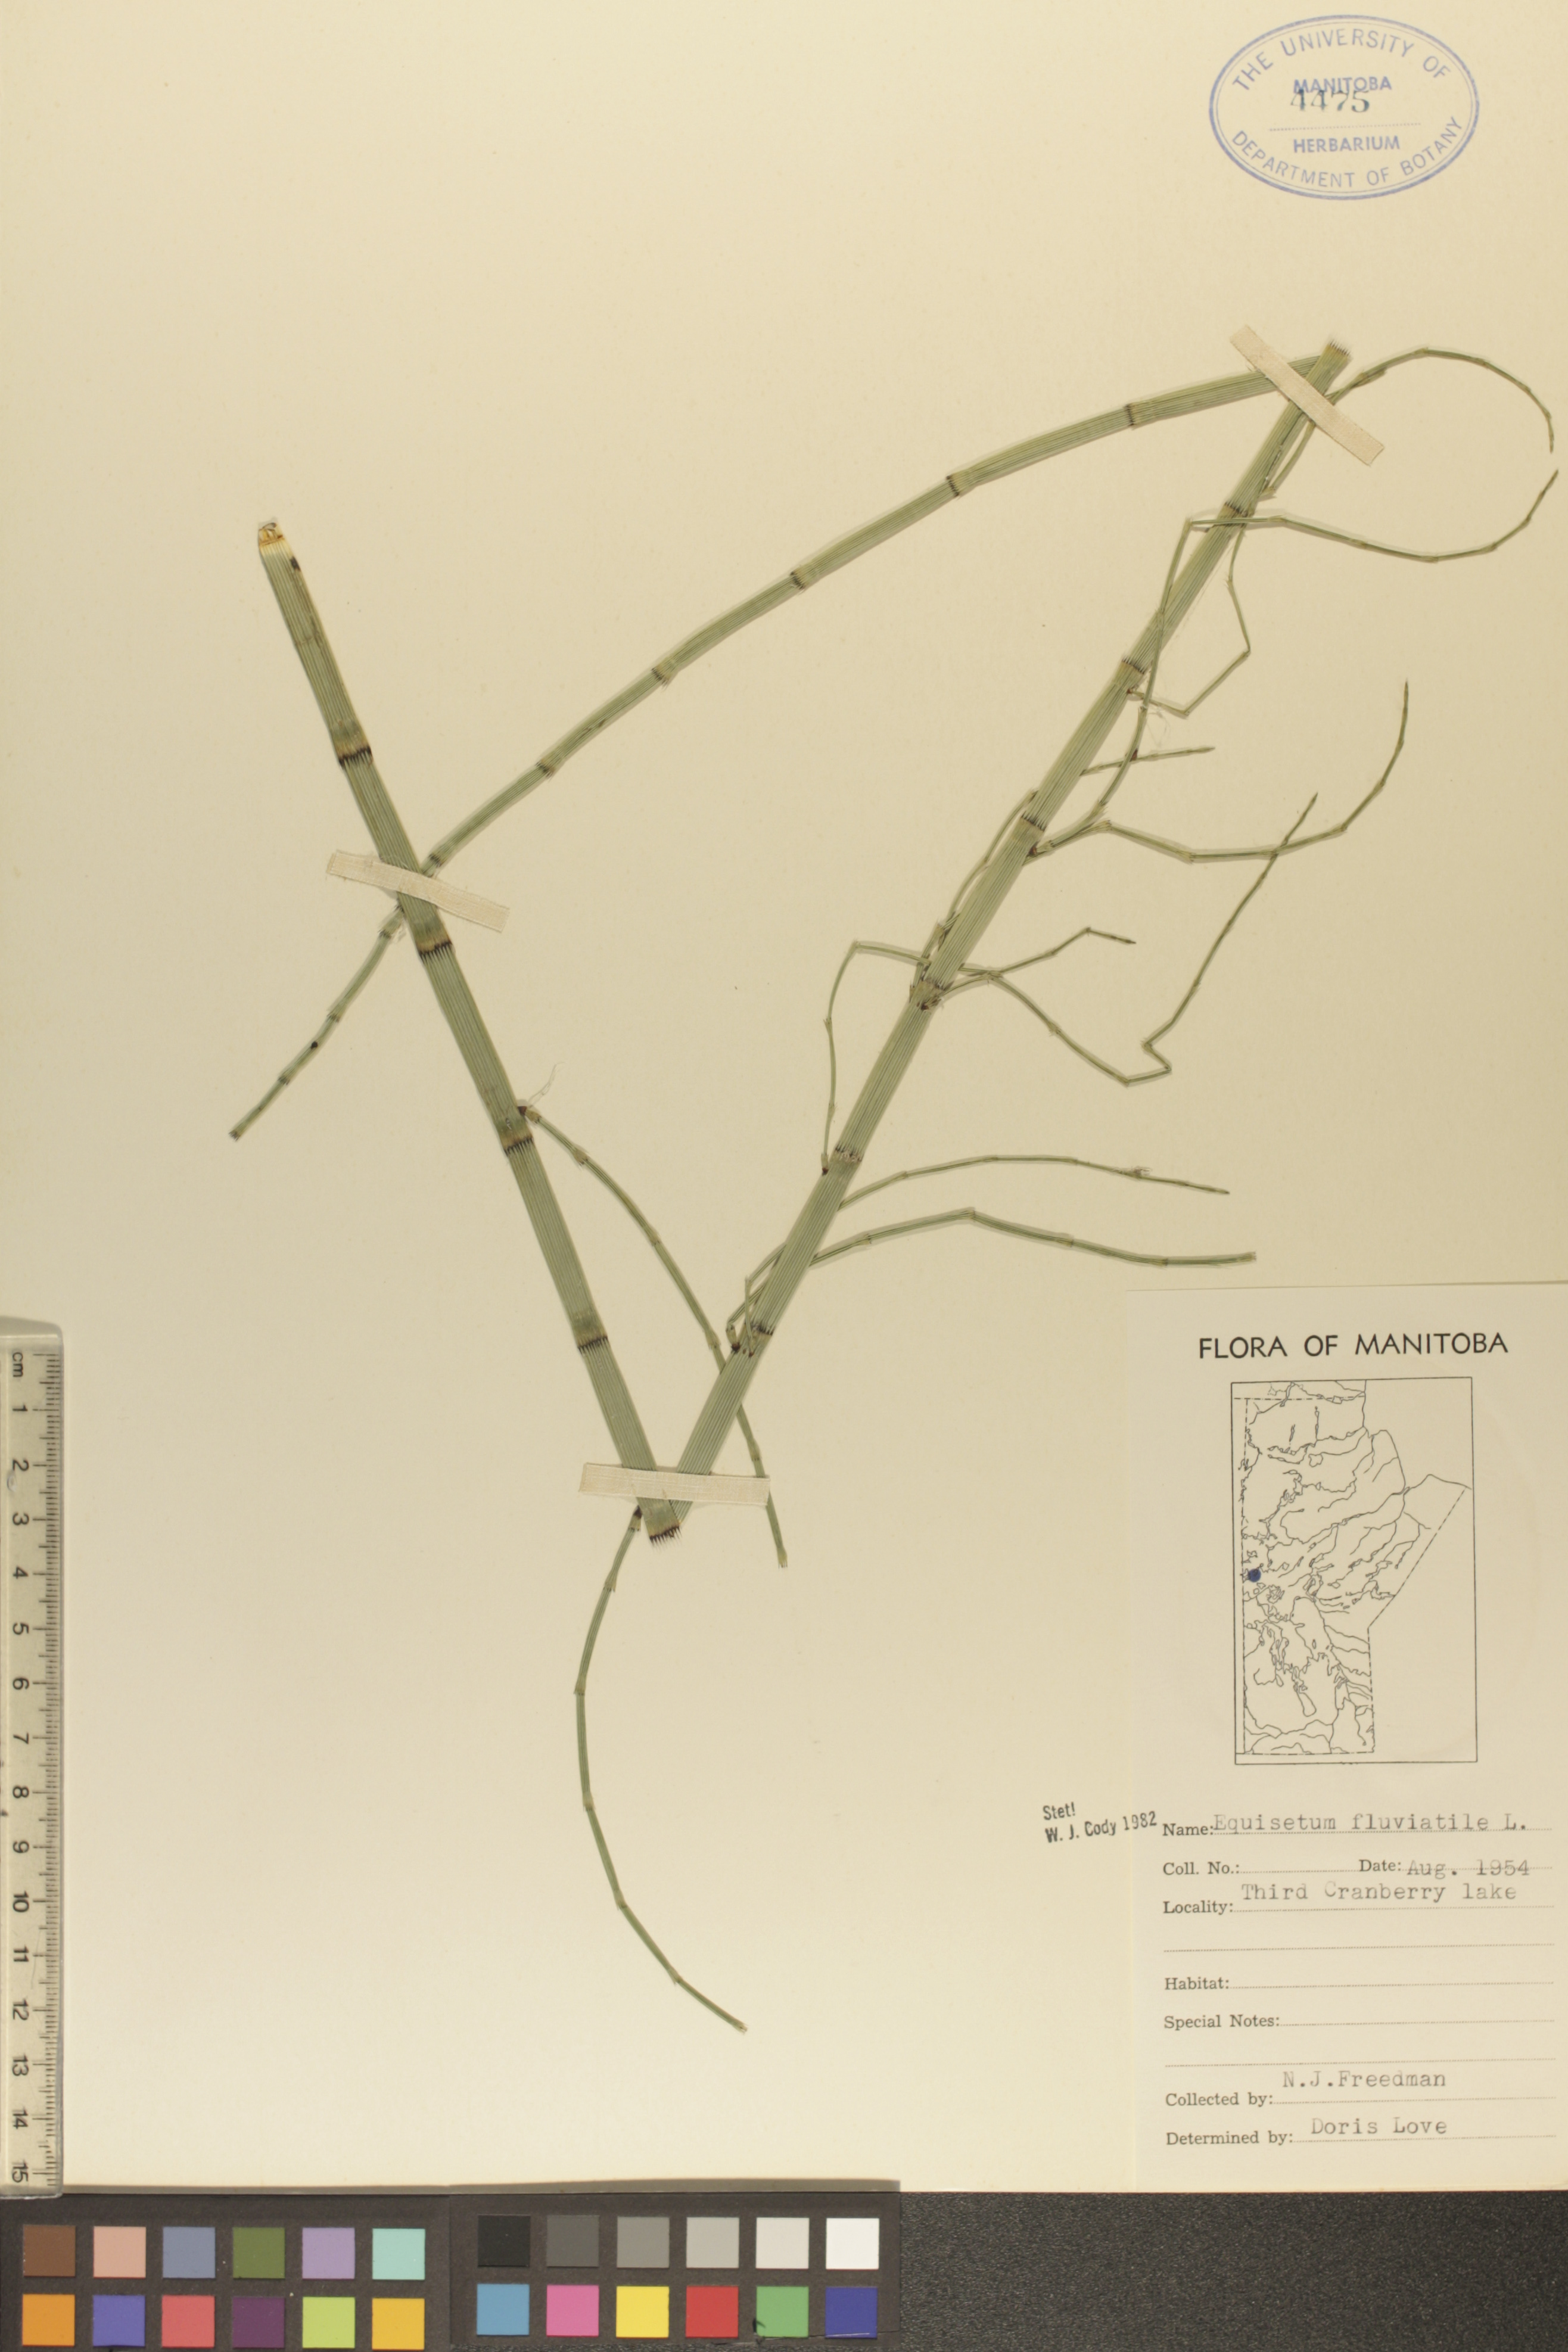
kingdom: Plantae
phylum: Tracheophyta
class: Polypodiopsida
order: Equisetales
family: Equisetaceae
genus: Equisetum
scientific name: Equisetum fluviatile
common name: Water horsetail
